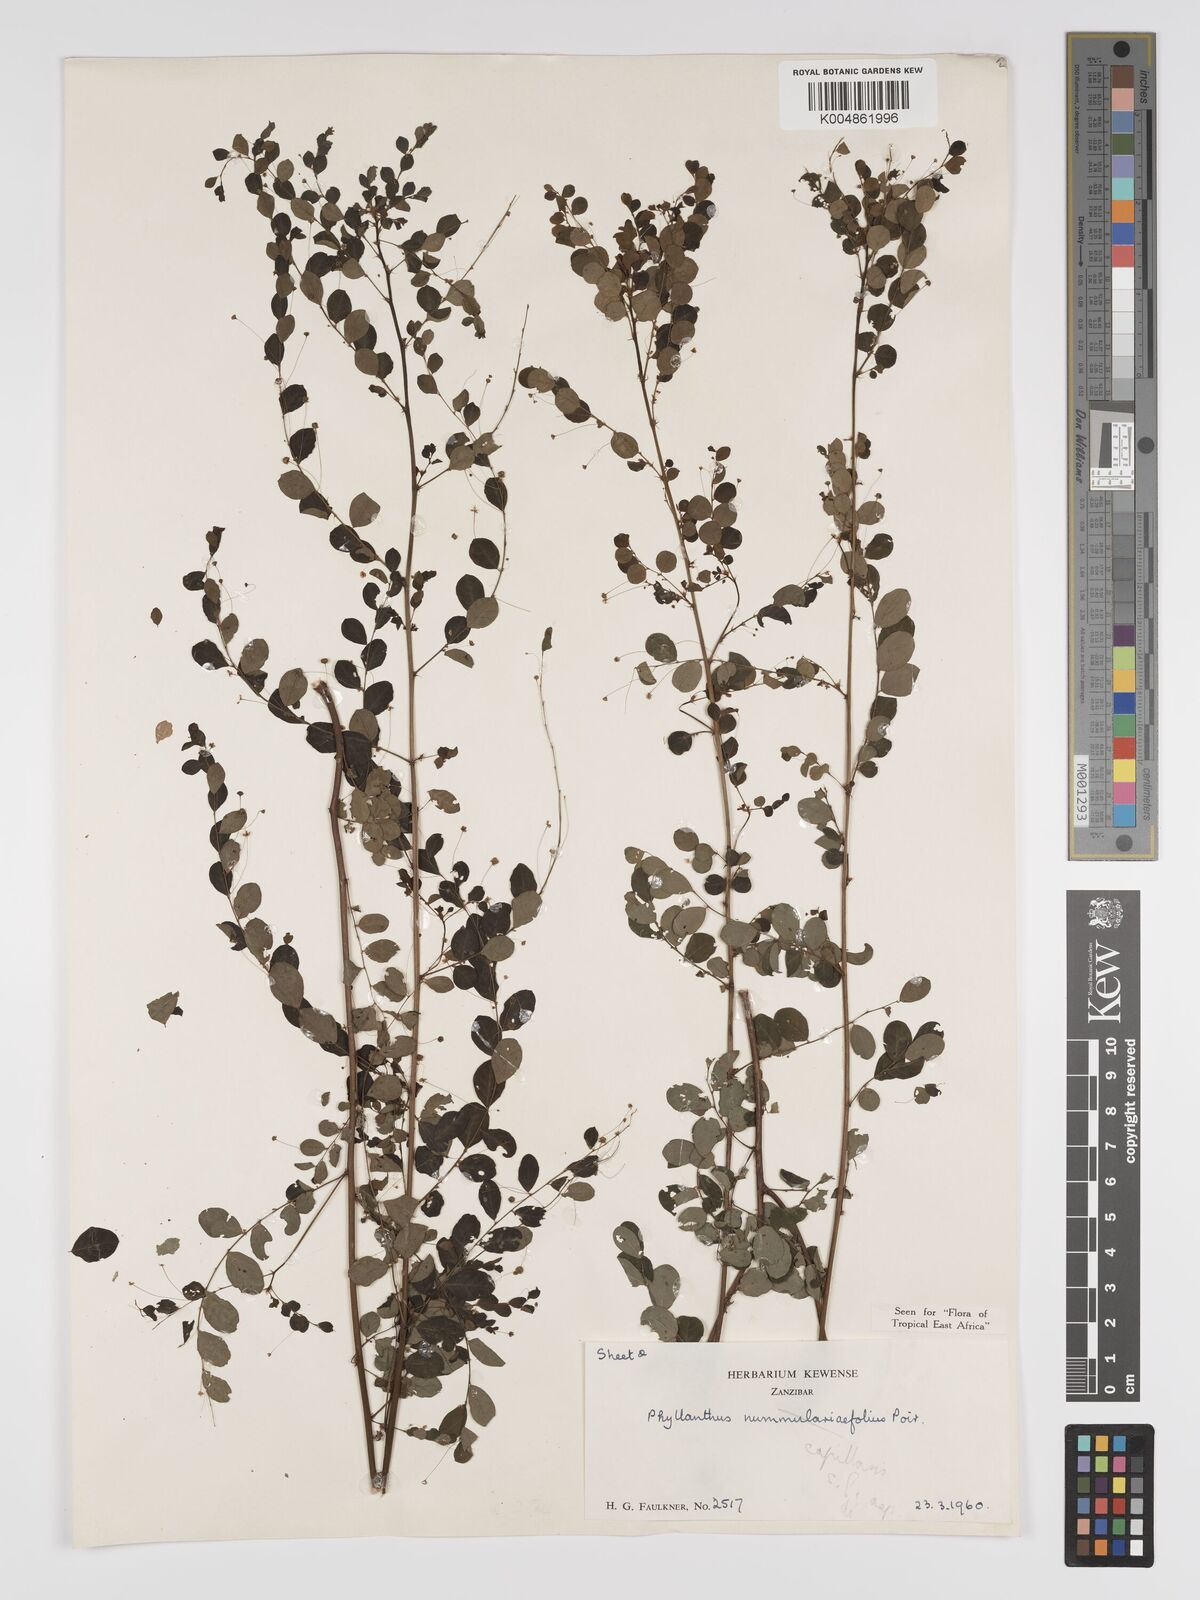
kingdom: Plantae
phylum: Tracheophyta
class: Magnoliopsida
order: Malpighiales
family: Phyllanthaceae
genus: Phyllanthus
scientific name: Phyllanthus nummulariifolius
